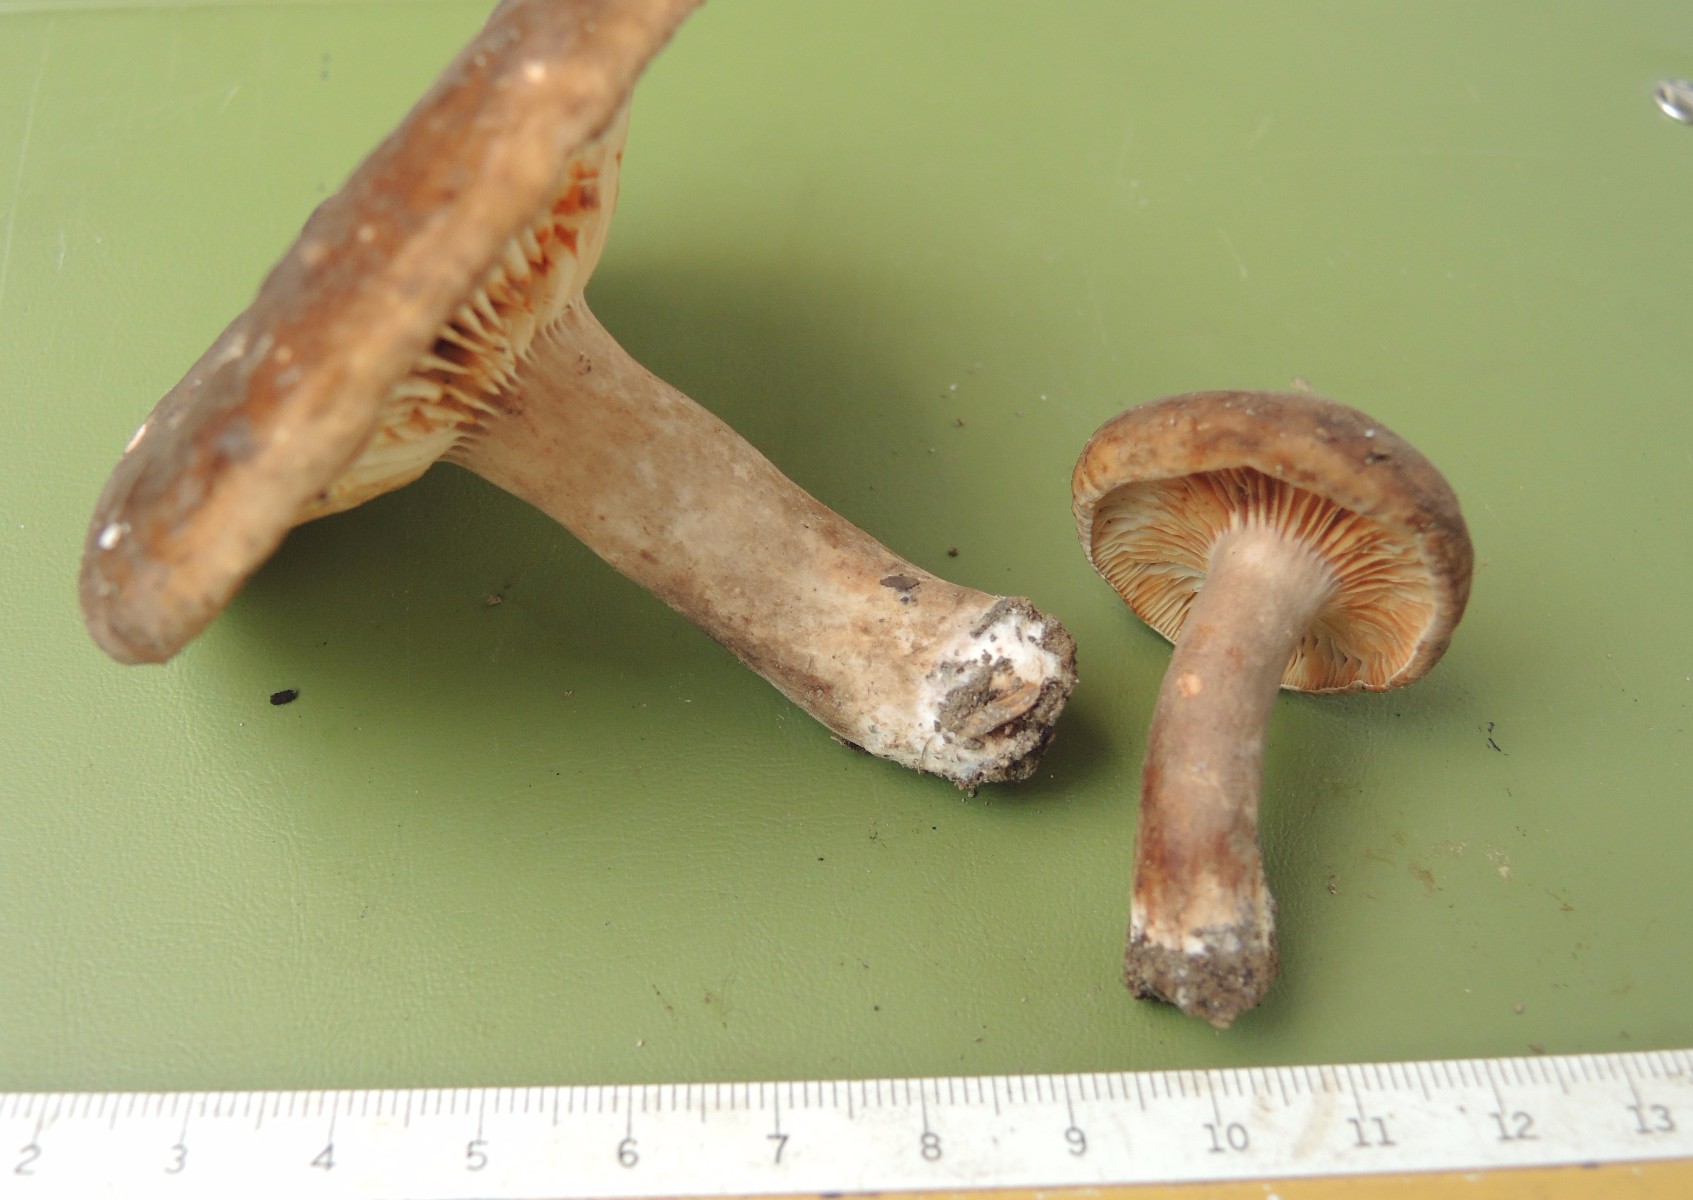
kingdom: Fungi
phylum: Basidiomycota
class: Agaricomycetes
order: Russulales
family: Russulaceae
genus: Lactarius
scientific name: Lactarius romagnesii
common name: fjernbladet mælkehat
